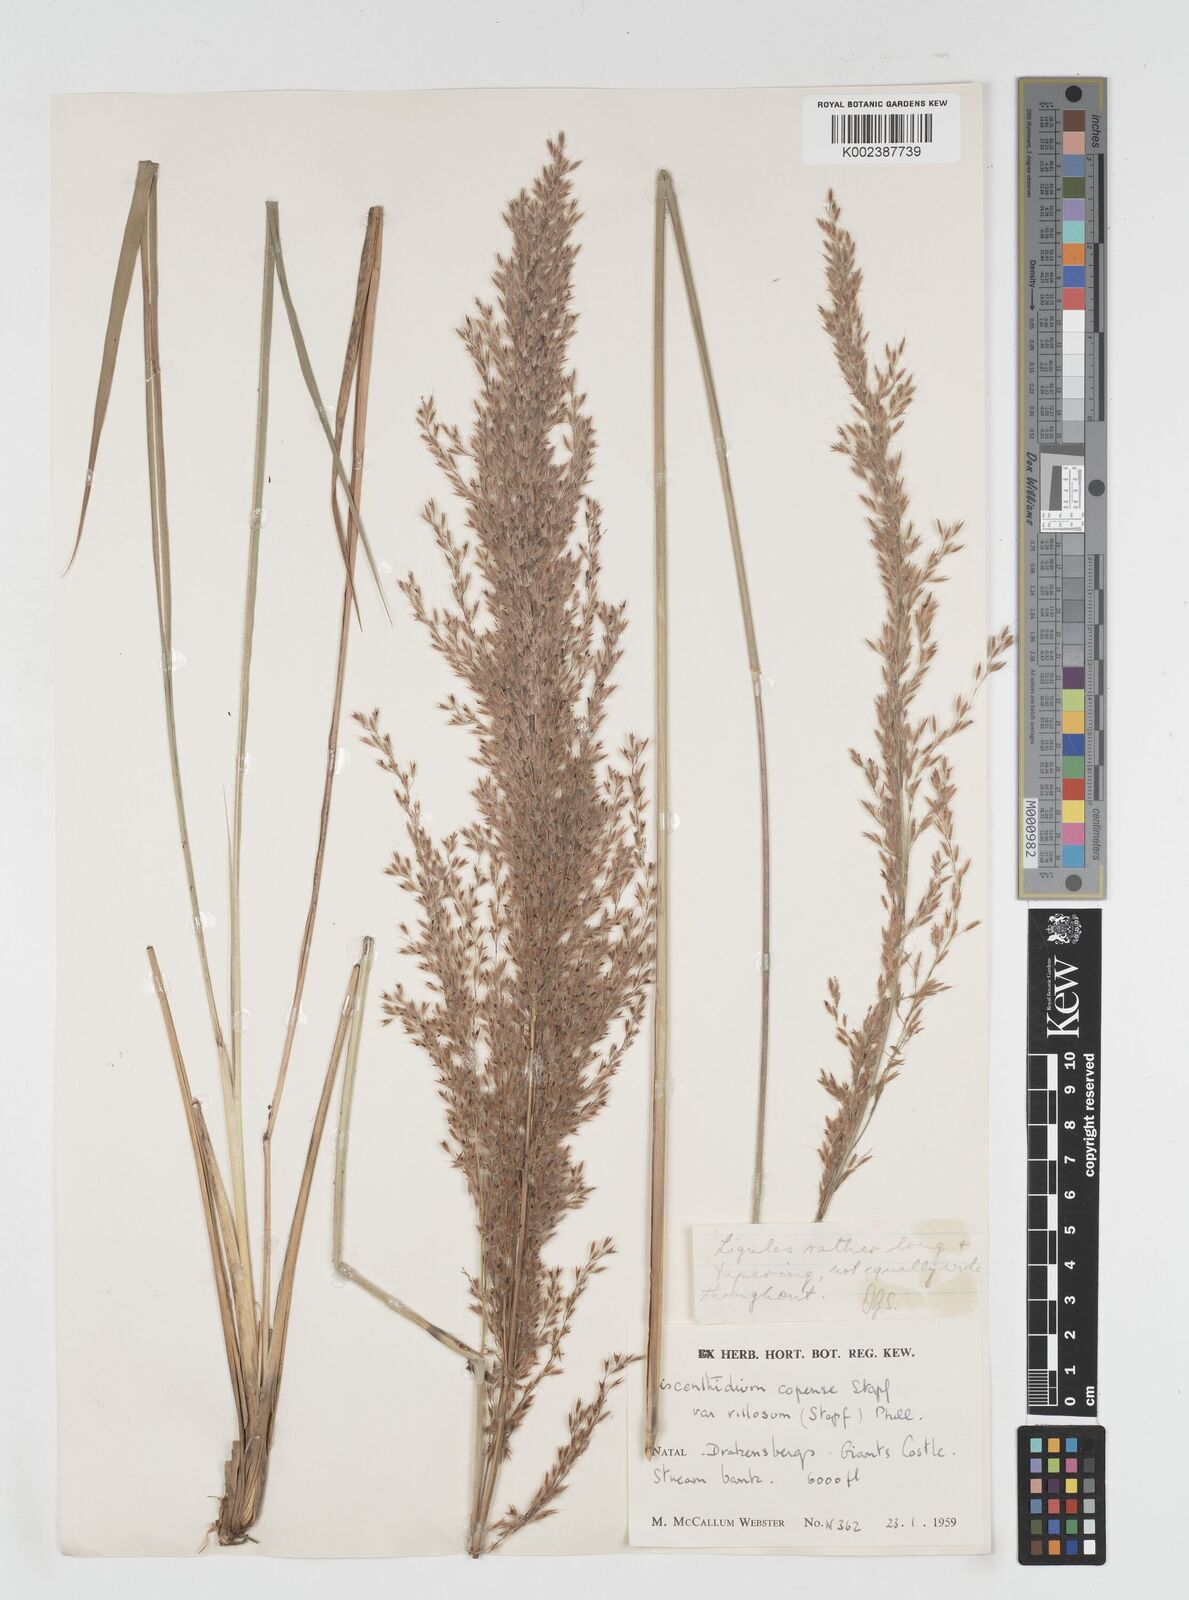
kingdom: Plantae
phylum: Tracheophyta
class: Liliopsida
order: Poales
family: Poaceae
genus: Miscanthus
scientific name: Miscanthus ecklonii
